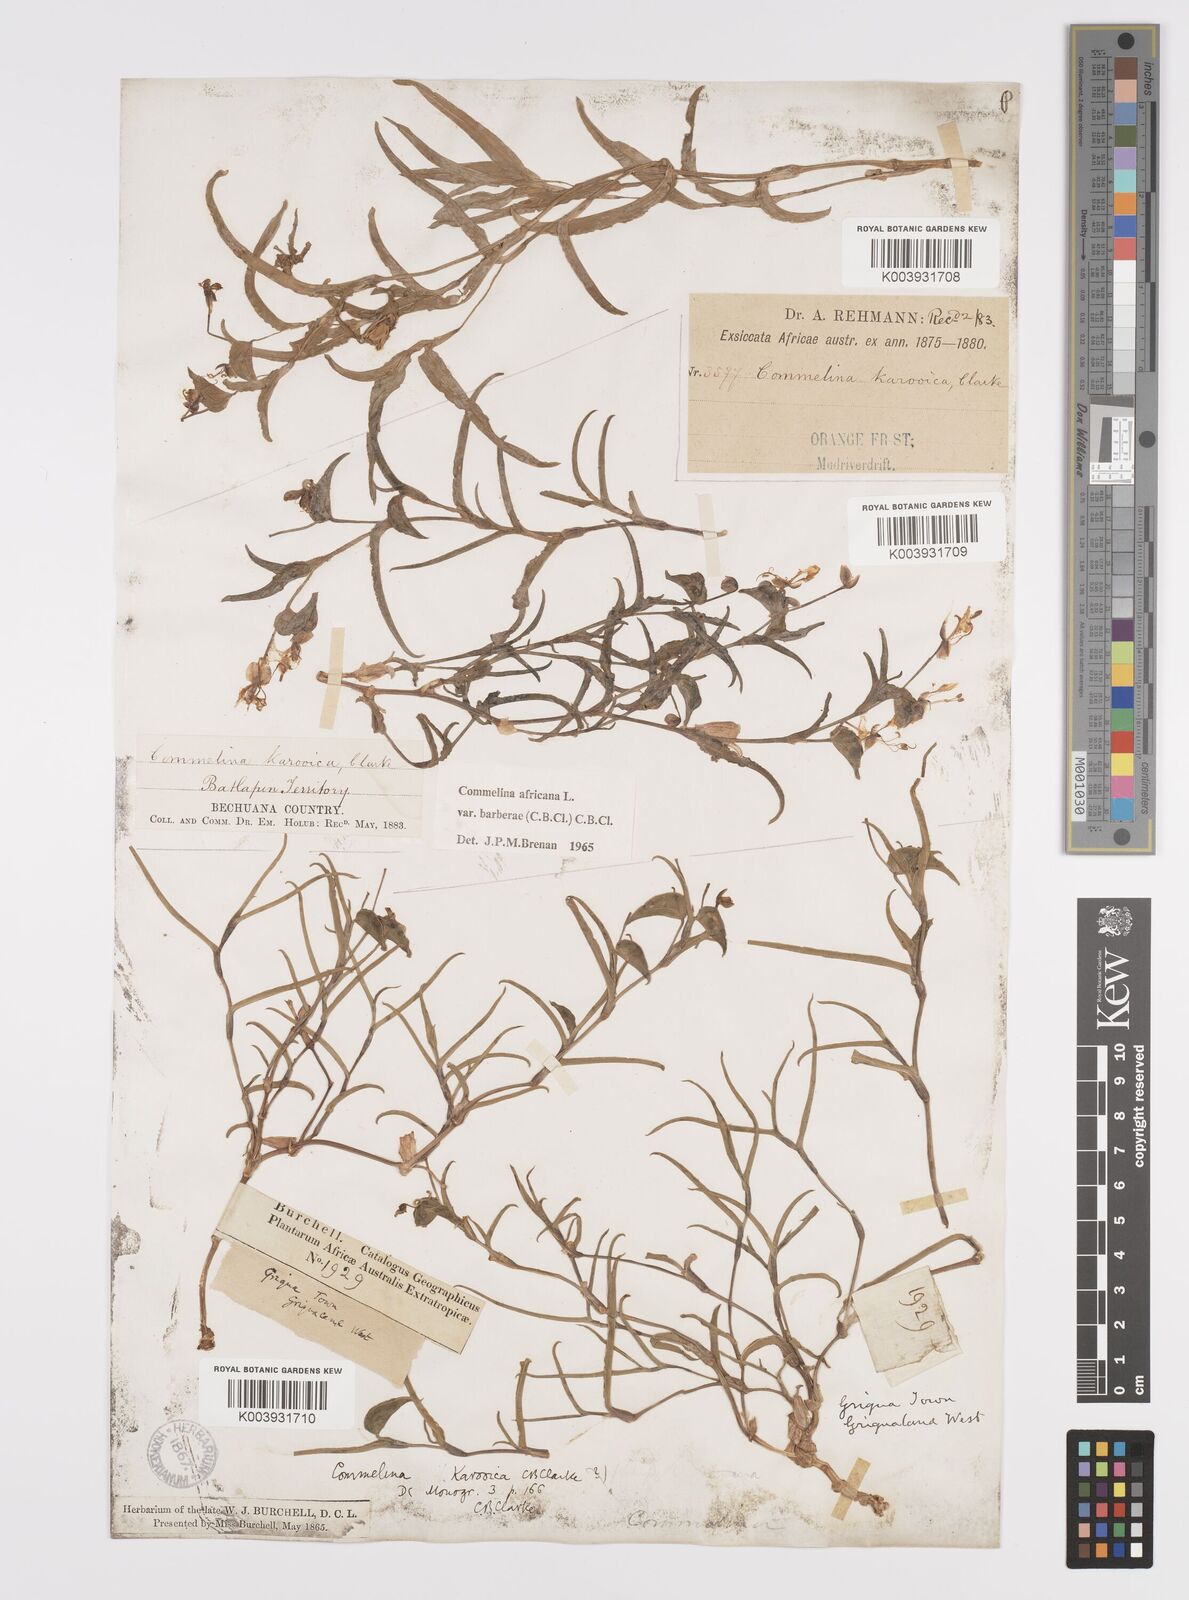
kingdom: Plantae
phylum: Tracheophyta
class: Liliopsida
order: Commelinales
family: Commelinaceae
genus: Commelina
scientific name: Commelina africana
